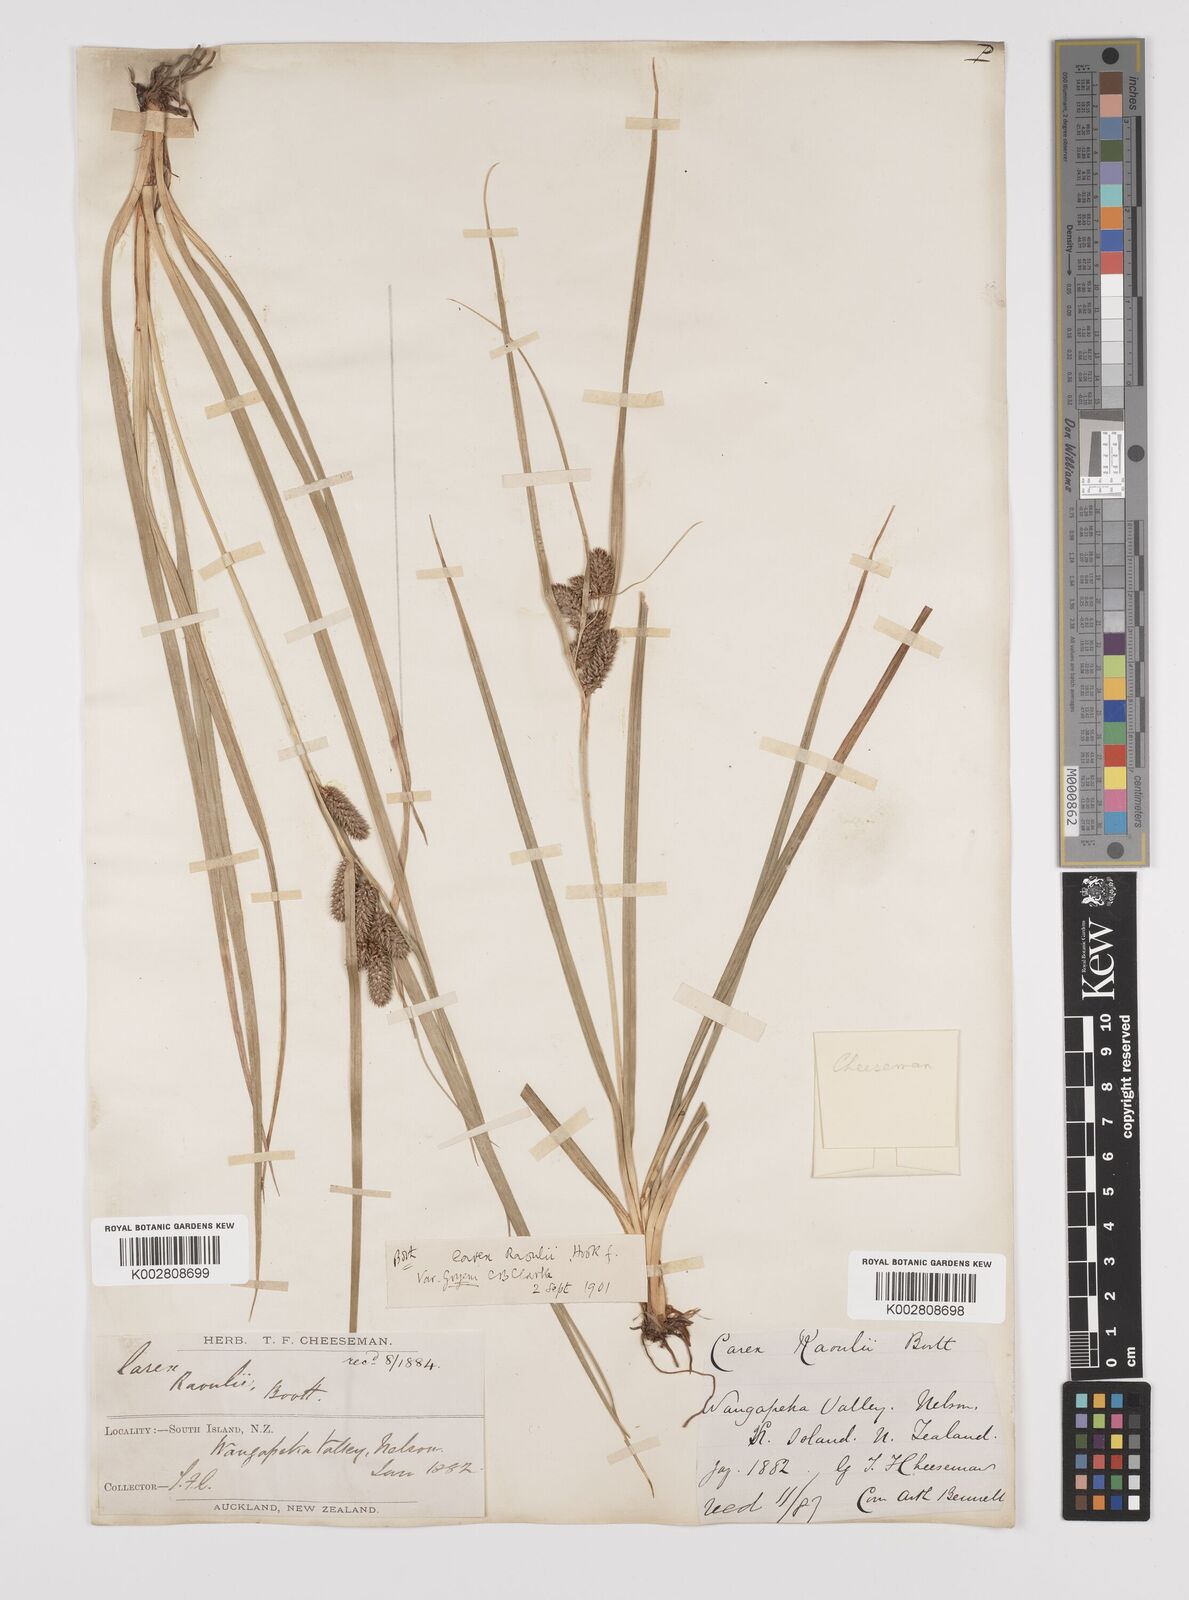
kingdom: Plantae
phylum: Tracheophyta
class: Liliopsida
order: Poales
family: Cyperaceae
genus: Carex
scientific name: Carex goyenii
